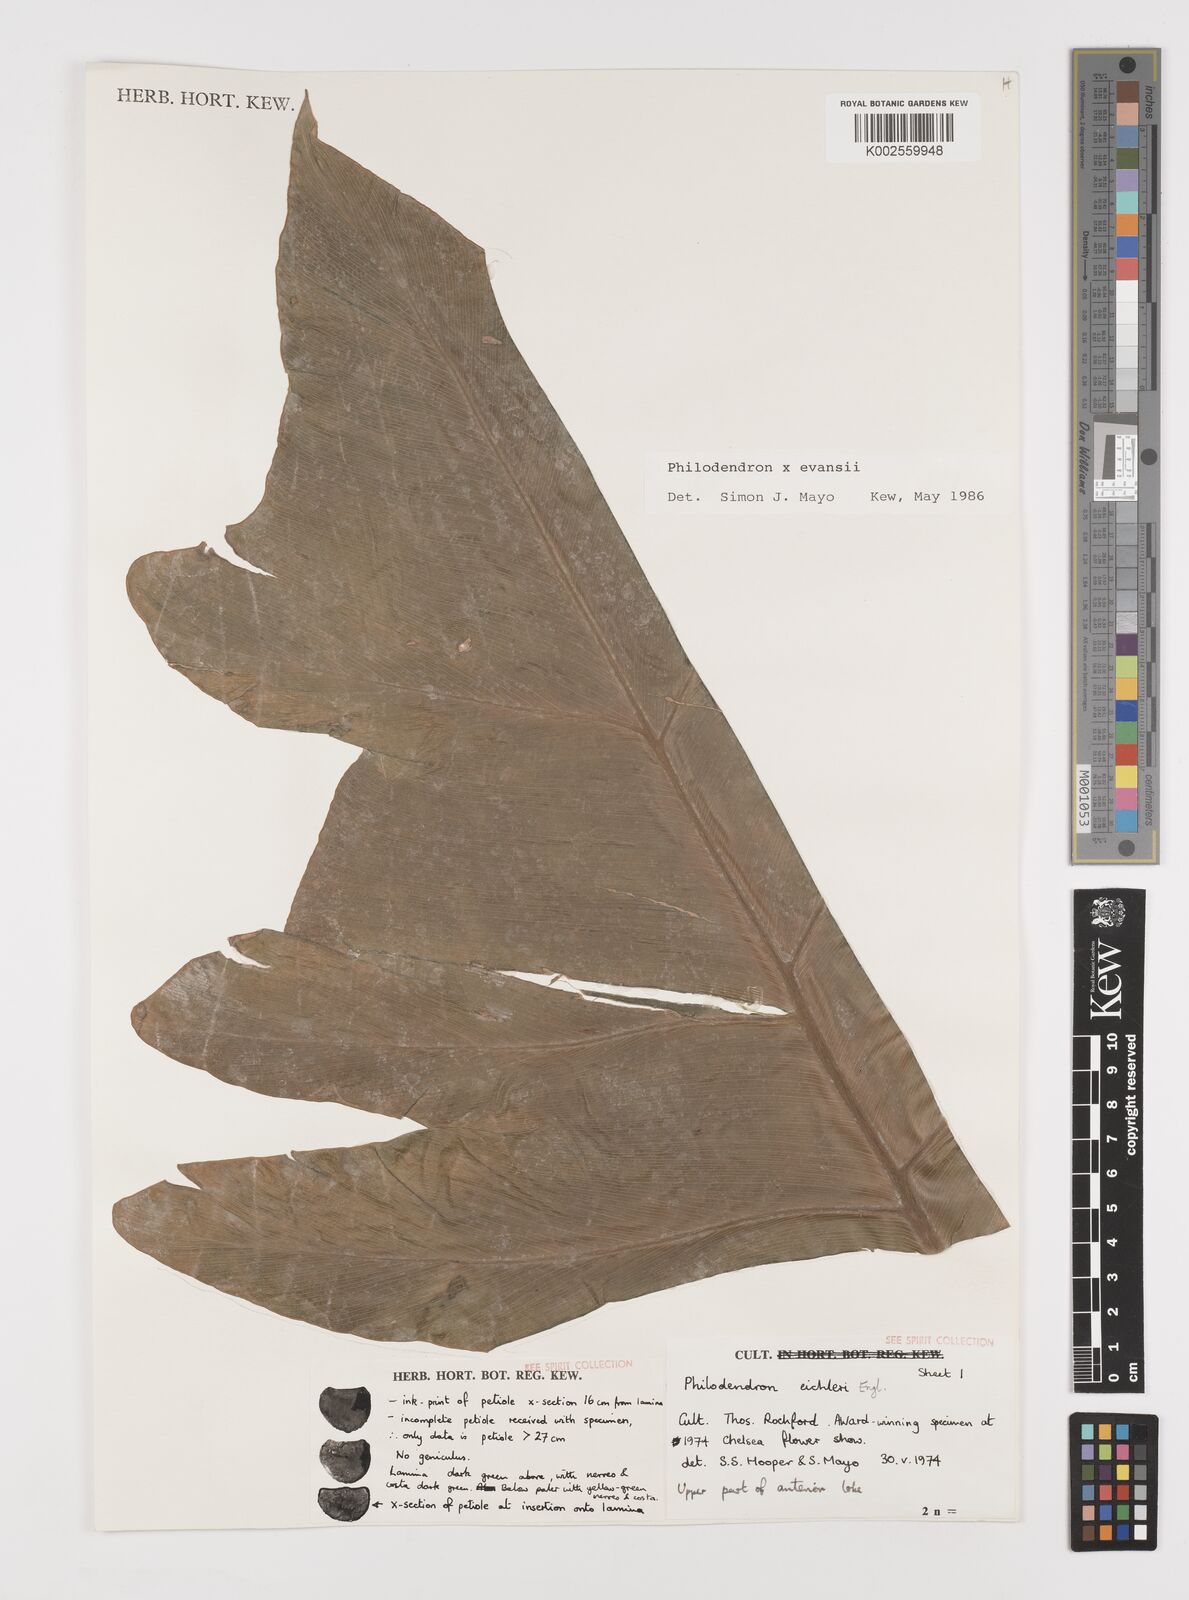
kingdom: Plantae
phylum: Tracheophyta
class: Liliopsida
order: Alismatales
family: Araceae
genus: Philodendron
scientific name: Philodendron
